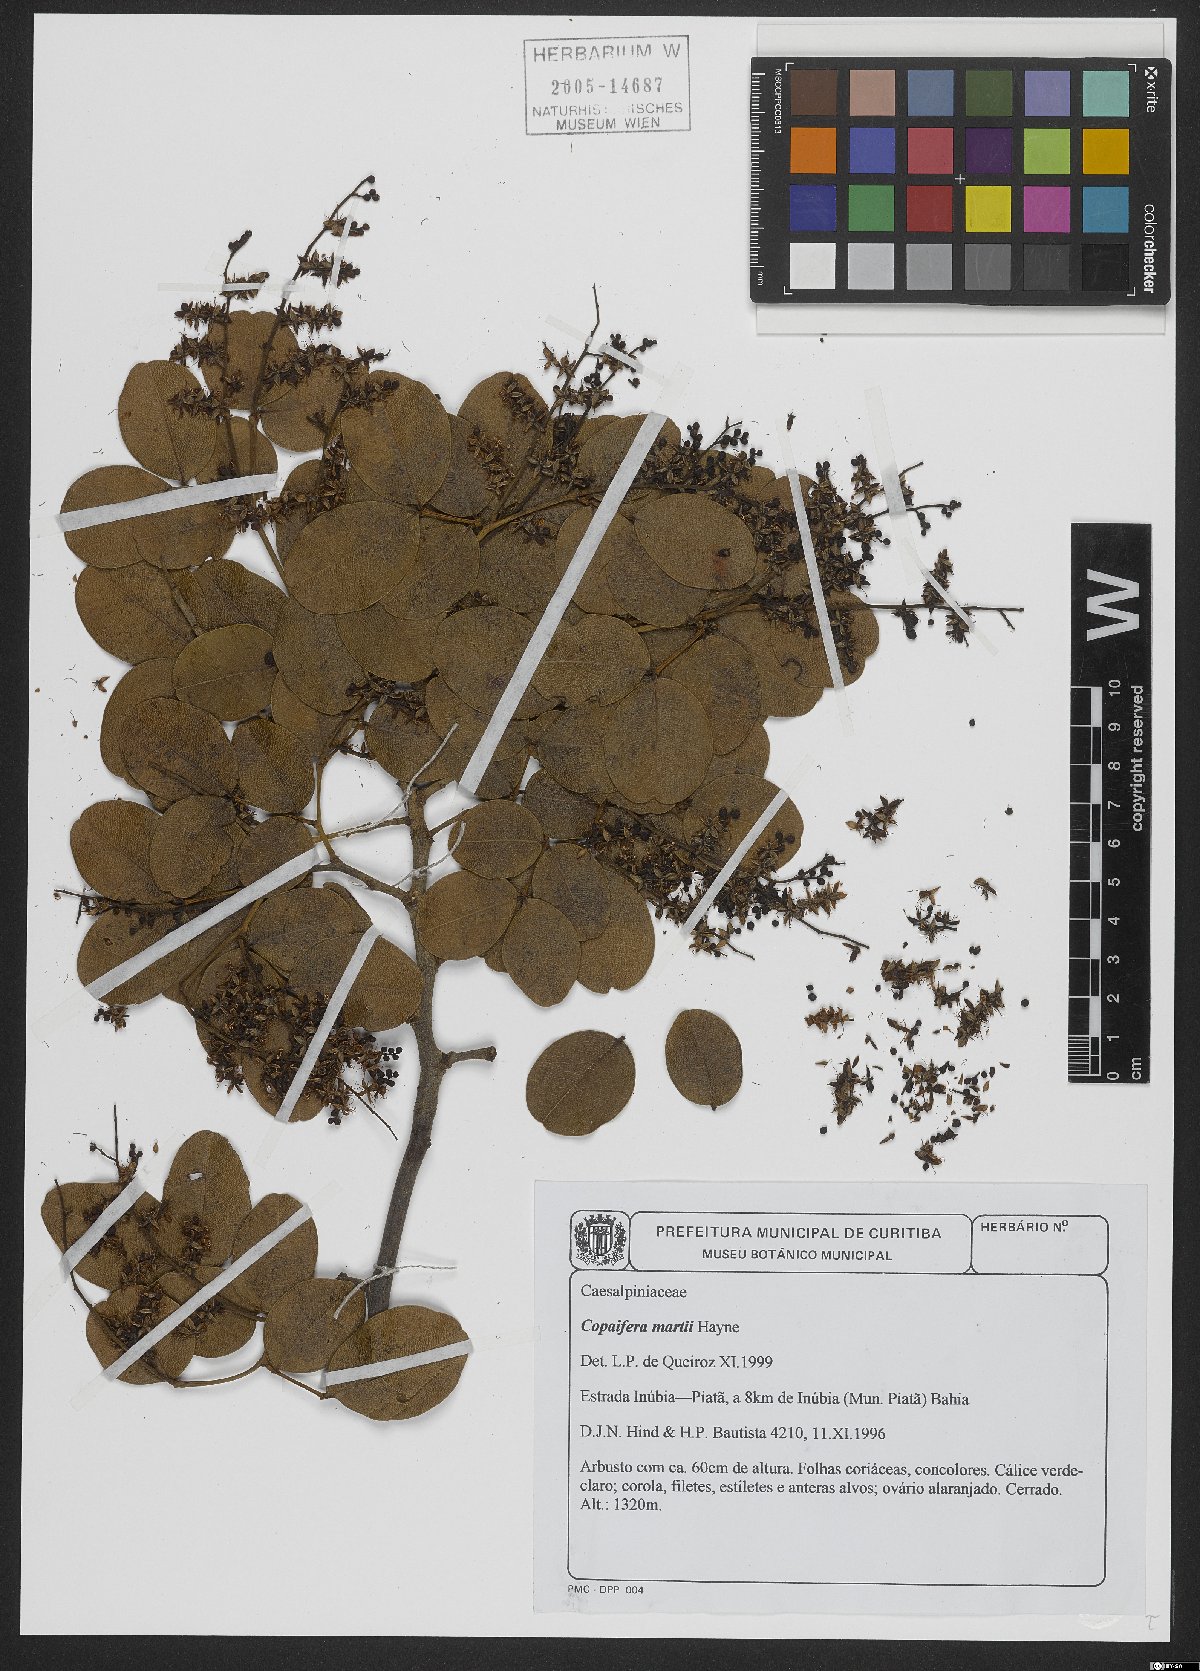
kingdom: Plantae
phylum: Tracheophyta
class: Magnoliopsida
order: Fabales
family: Fabaceae
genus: Copaifera
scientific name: Copaifera martii
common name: Copaiba
